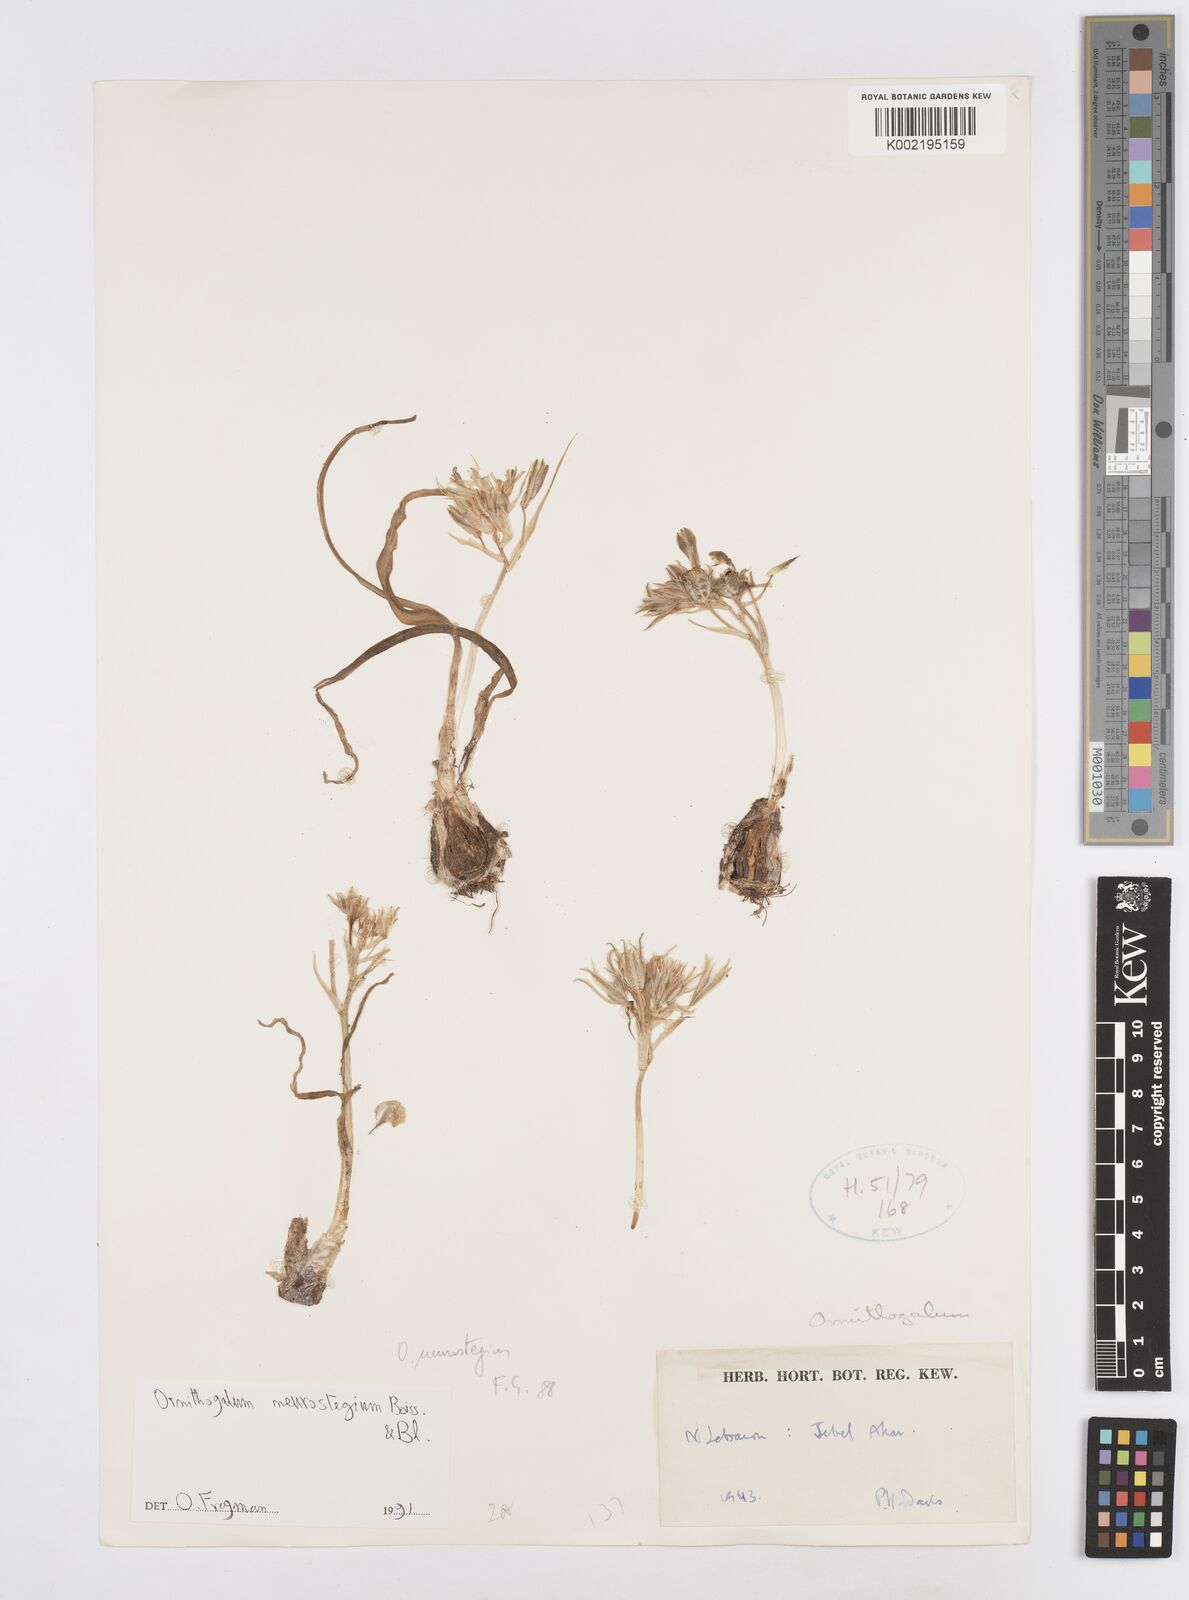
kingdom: Plantae
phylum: Tracheophyta
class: Liliopsida
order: Asparagales
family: Asparagaceae
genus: Ornithogalum
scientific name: Ornithogalum neurostegium
